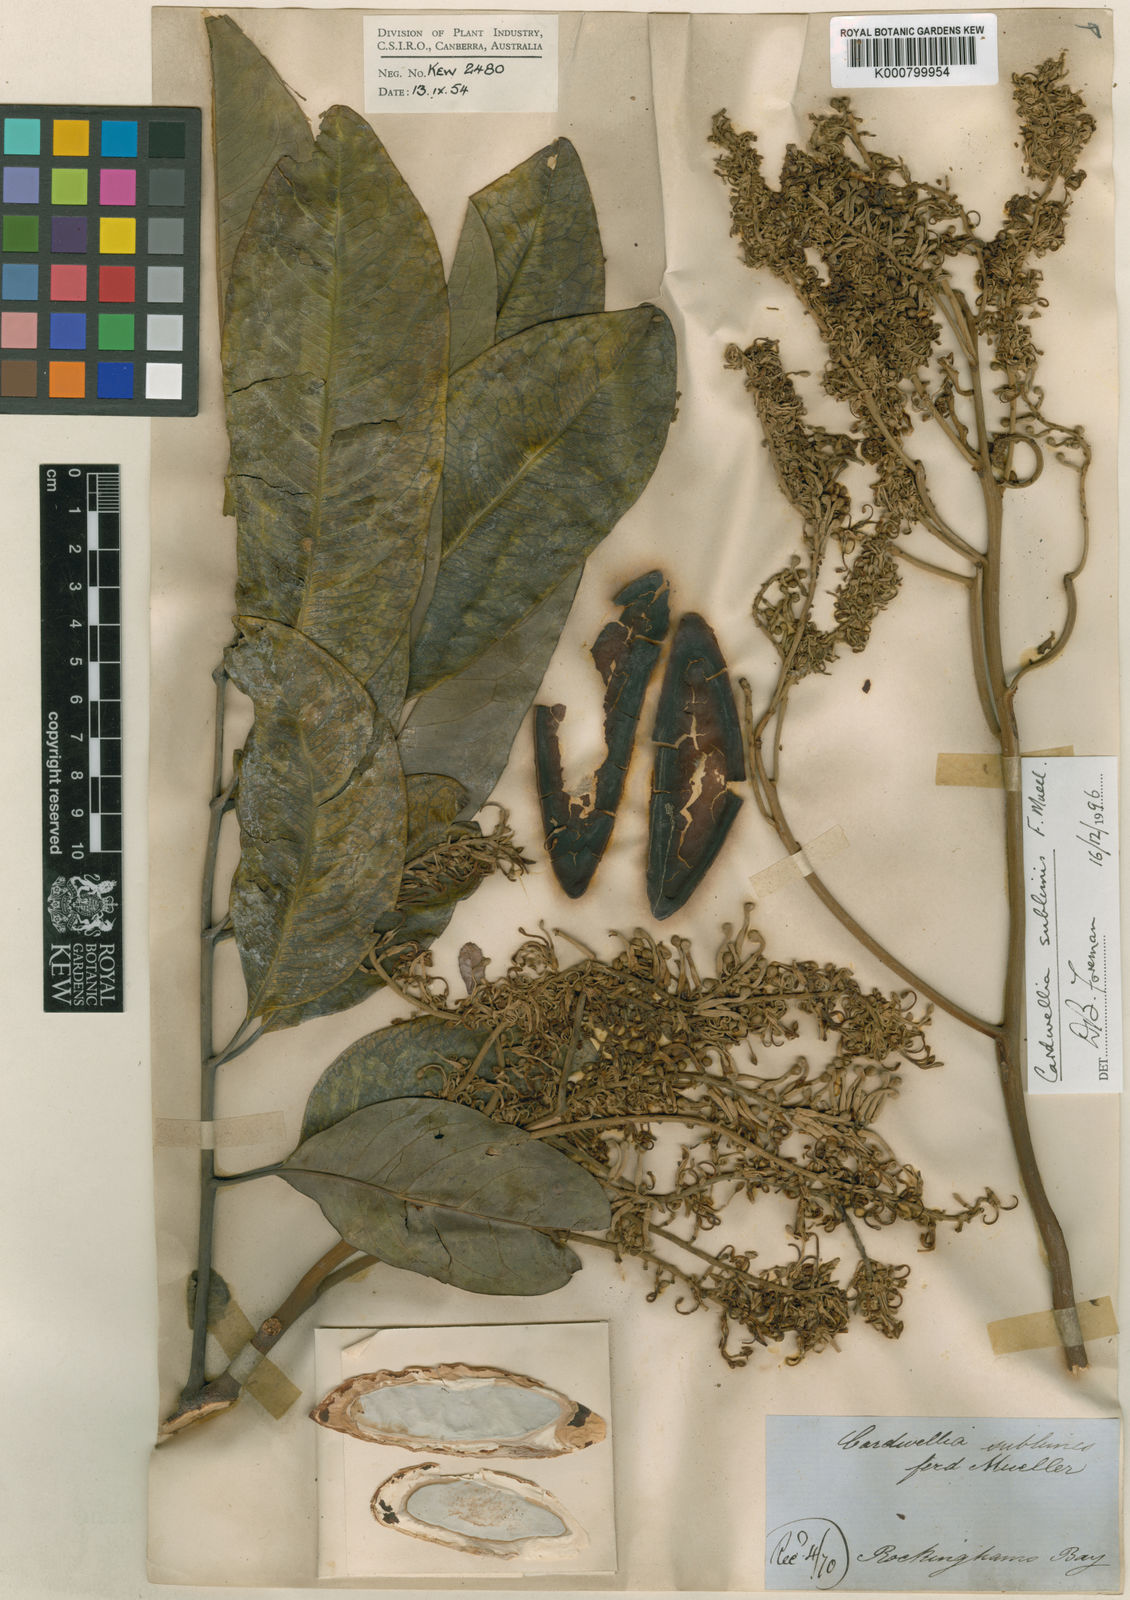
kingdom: Plantae
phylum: Tracheophyta
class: Magnoliopsida
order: Proteales
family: Proteaceae
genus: Cardwellia
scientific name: Cardwellia sublimis
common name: Bull oak
